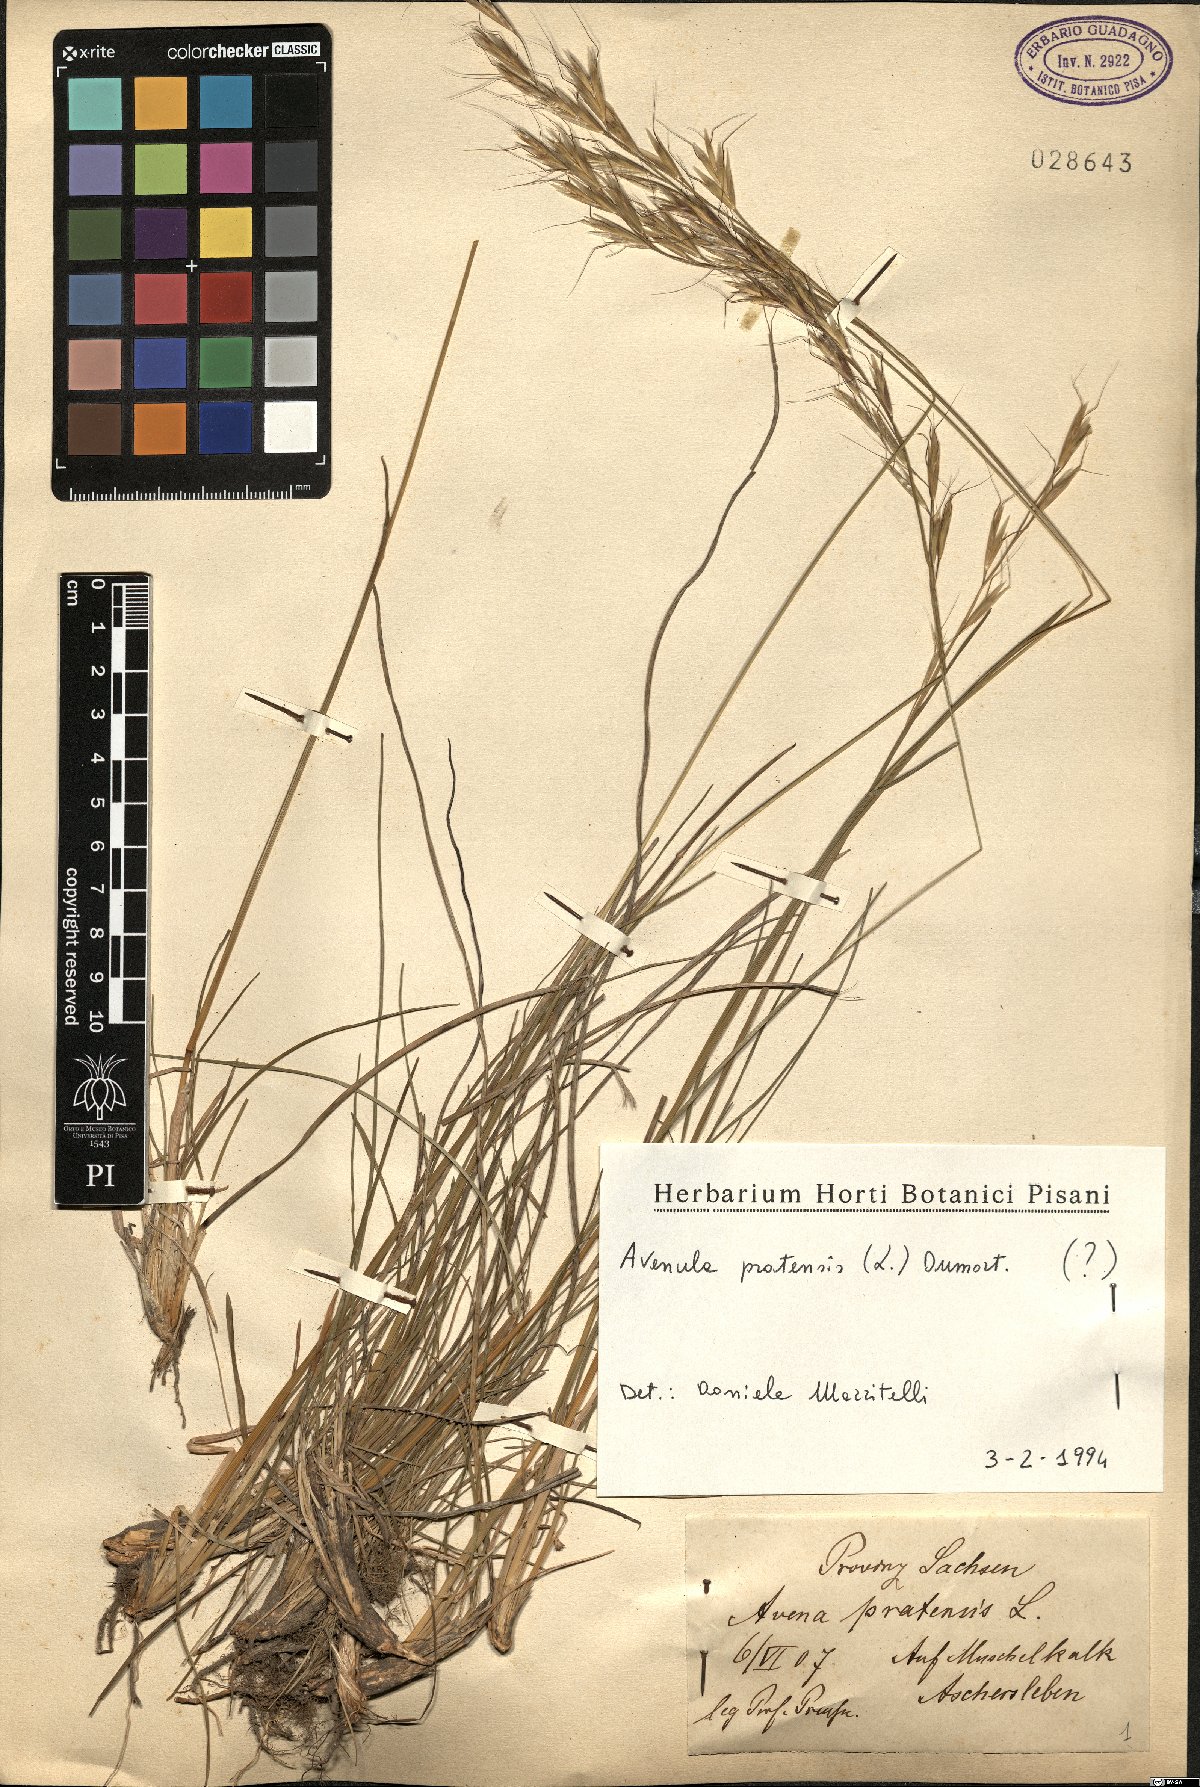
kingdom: Plantae
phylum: Tracheophyta
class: Liliopsida
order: Poales
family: Poaceae
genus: Helictochloa
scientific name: Helictochloa pratensis
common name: Meadow oat grass
